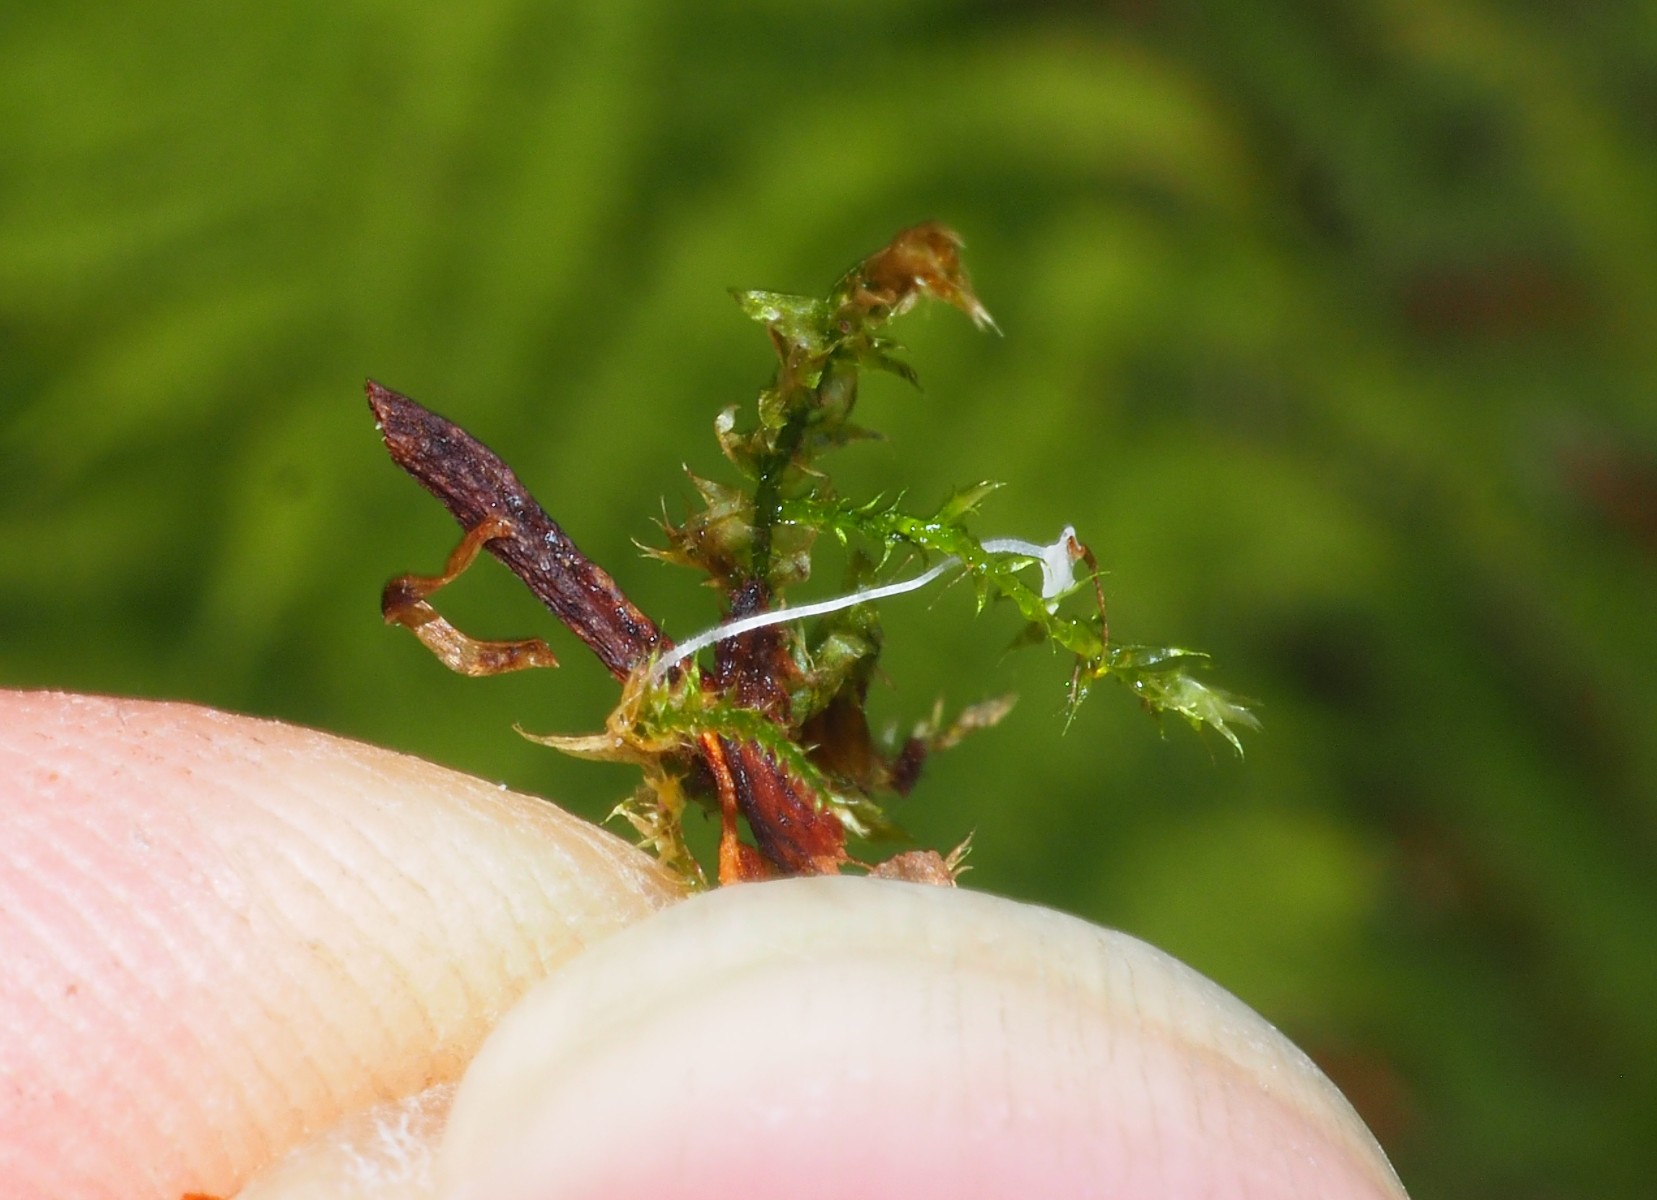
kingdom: Fungi
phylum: Basidiomycota
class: Agaricomycetes
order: Agaricales
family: Mycenaceae
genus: Hemimycena
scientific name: Hemimycena
